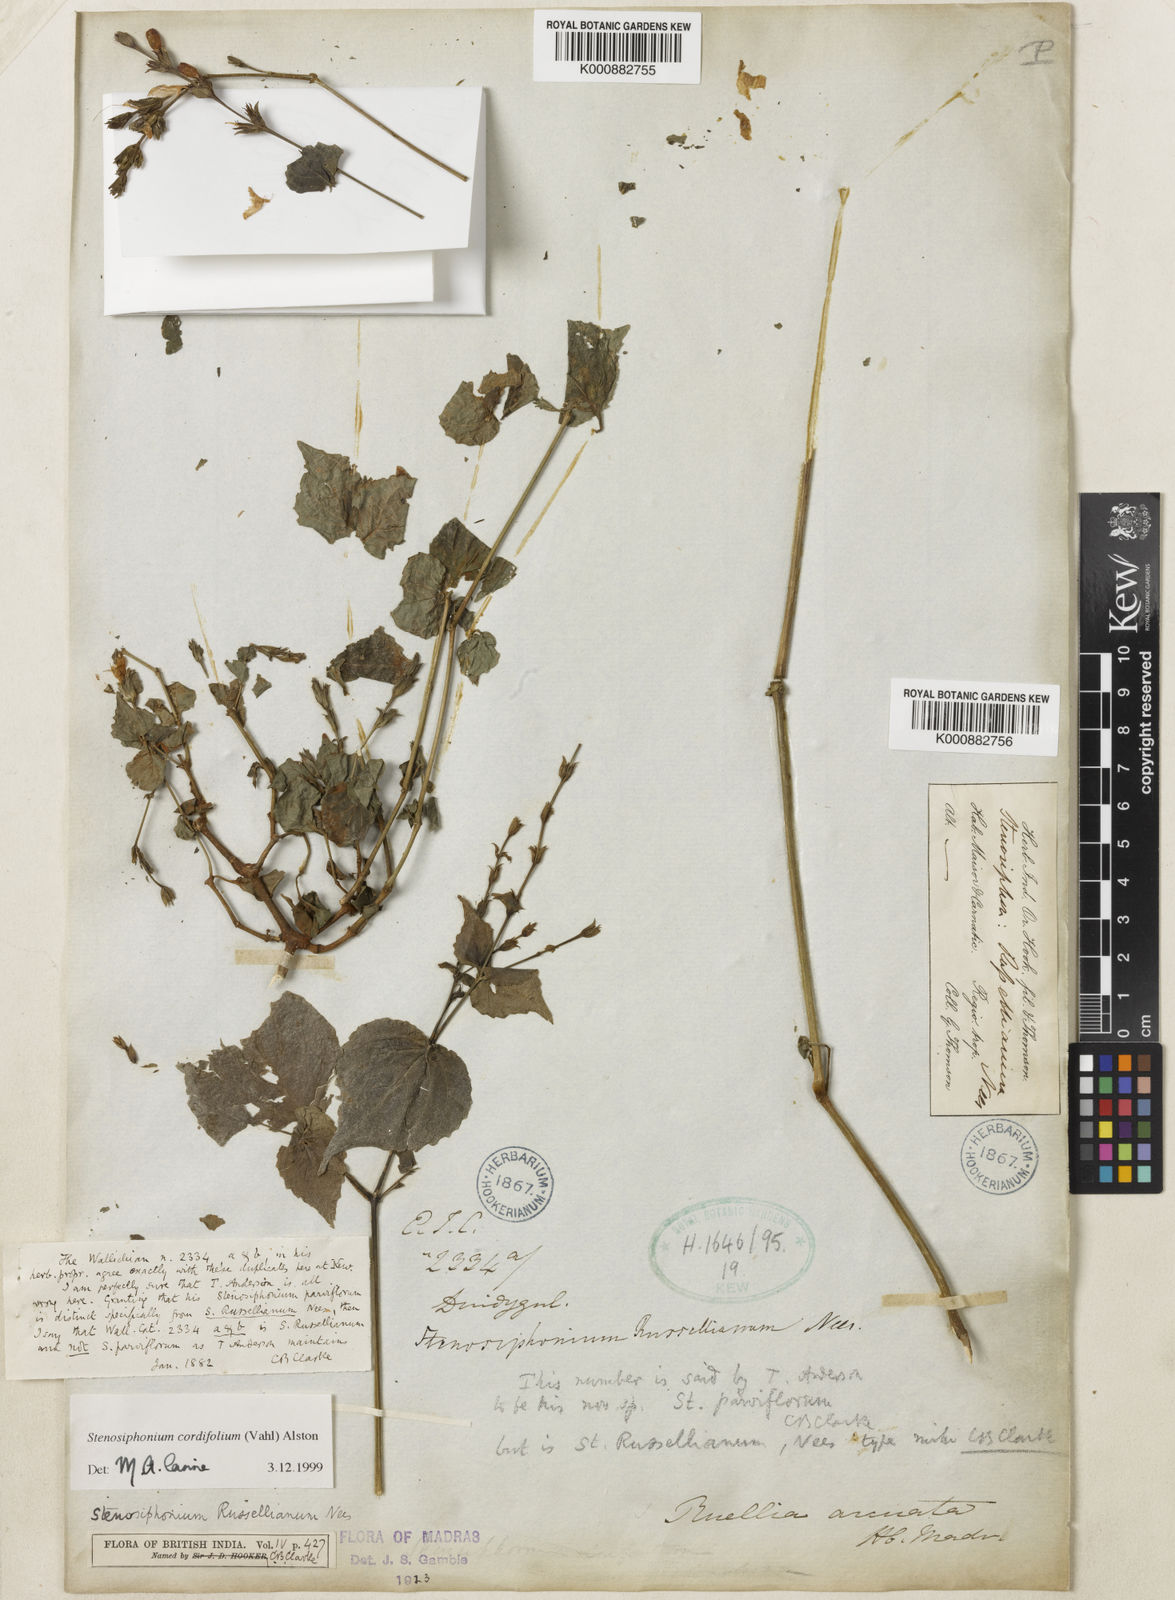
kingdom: Plantae
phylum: Tracheophyta
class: Magnoliopsida
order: Lamiales
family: Acanthaceae
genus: Strobilanthes
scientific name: Strobilanthes cordifolia
